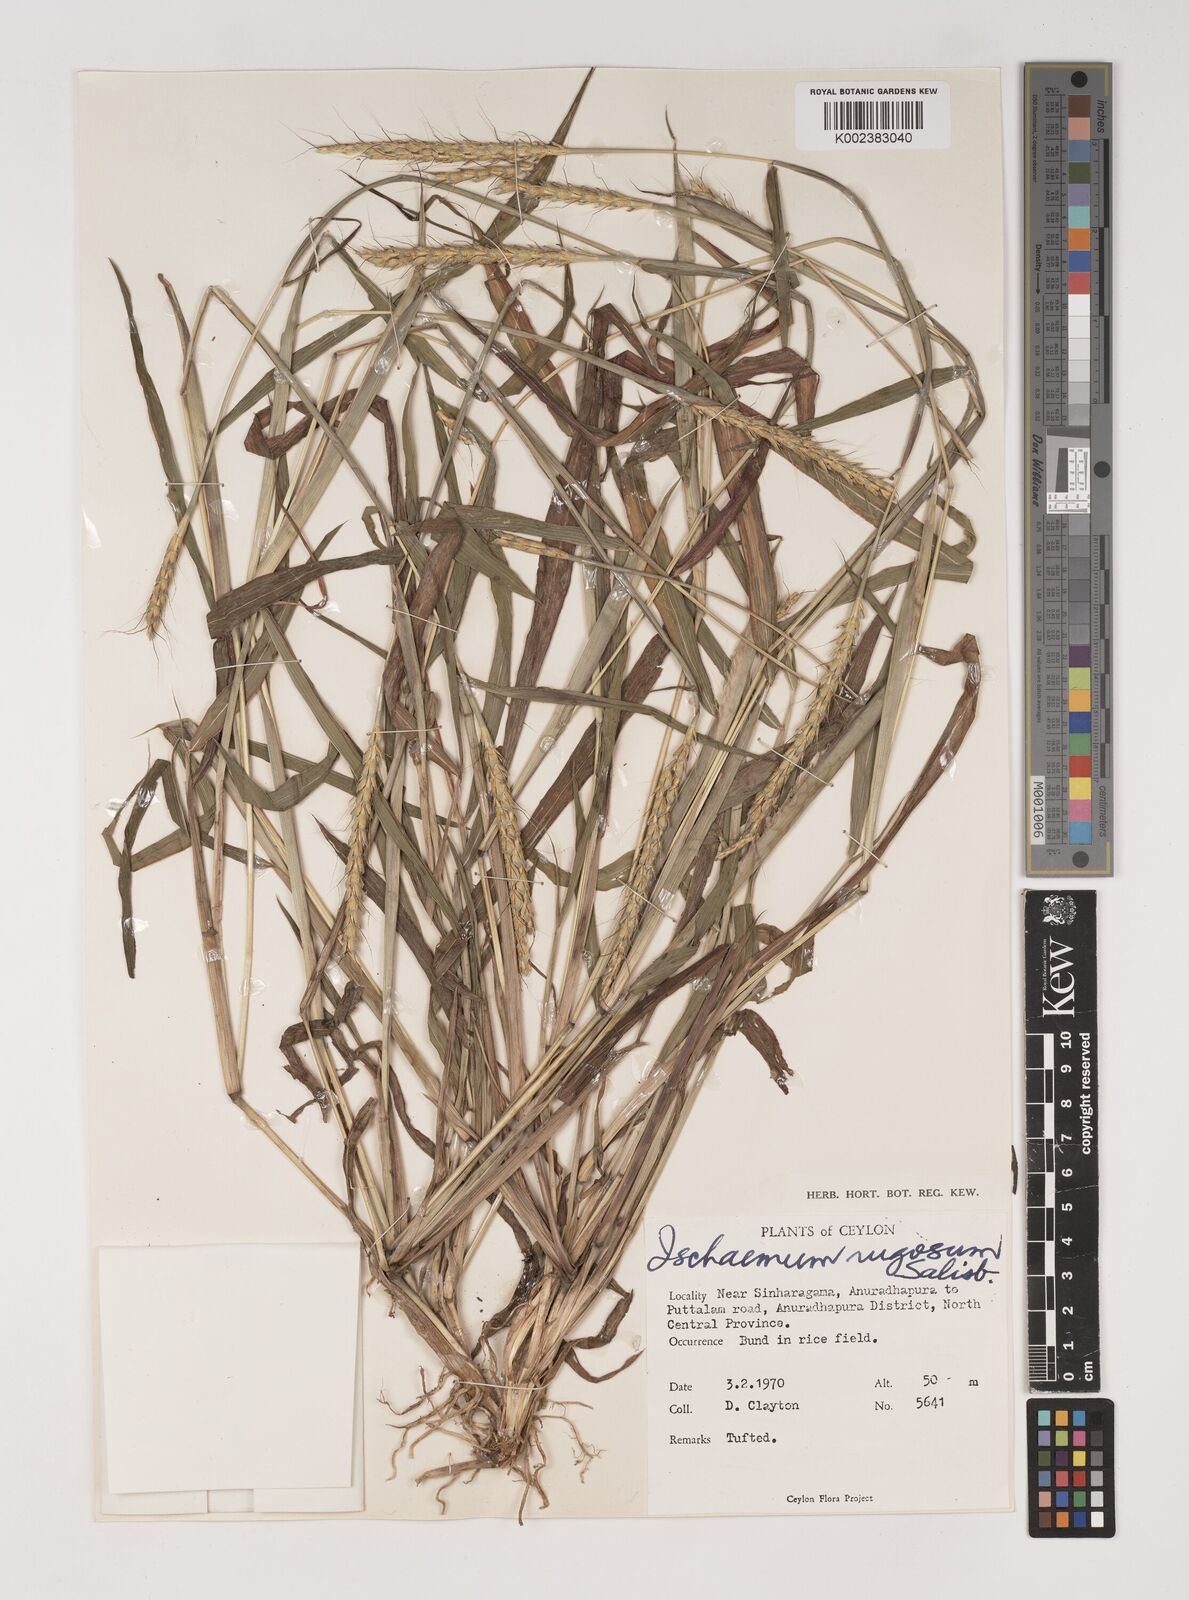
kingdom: Plantae
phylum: Tracheophyta
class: Liliopsida
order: Poales
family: Poaceae
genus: Ischaemum
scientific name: Ischaemum rugosum
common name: Saramatta grass
